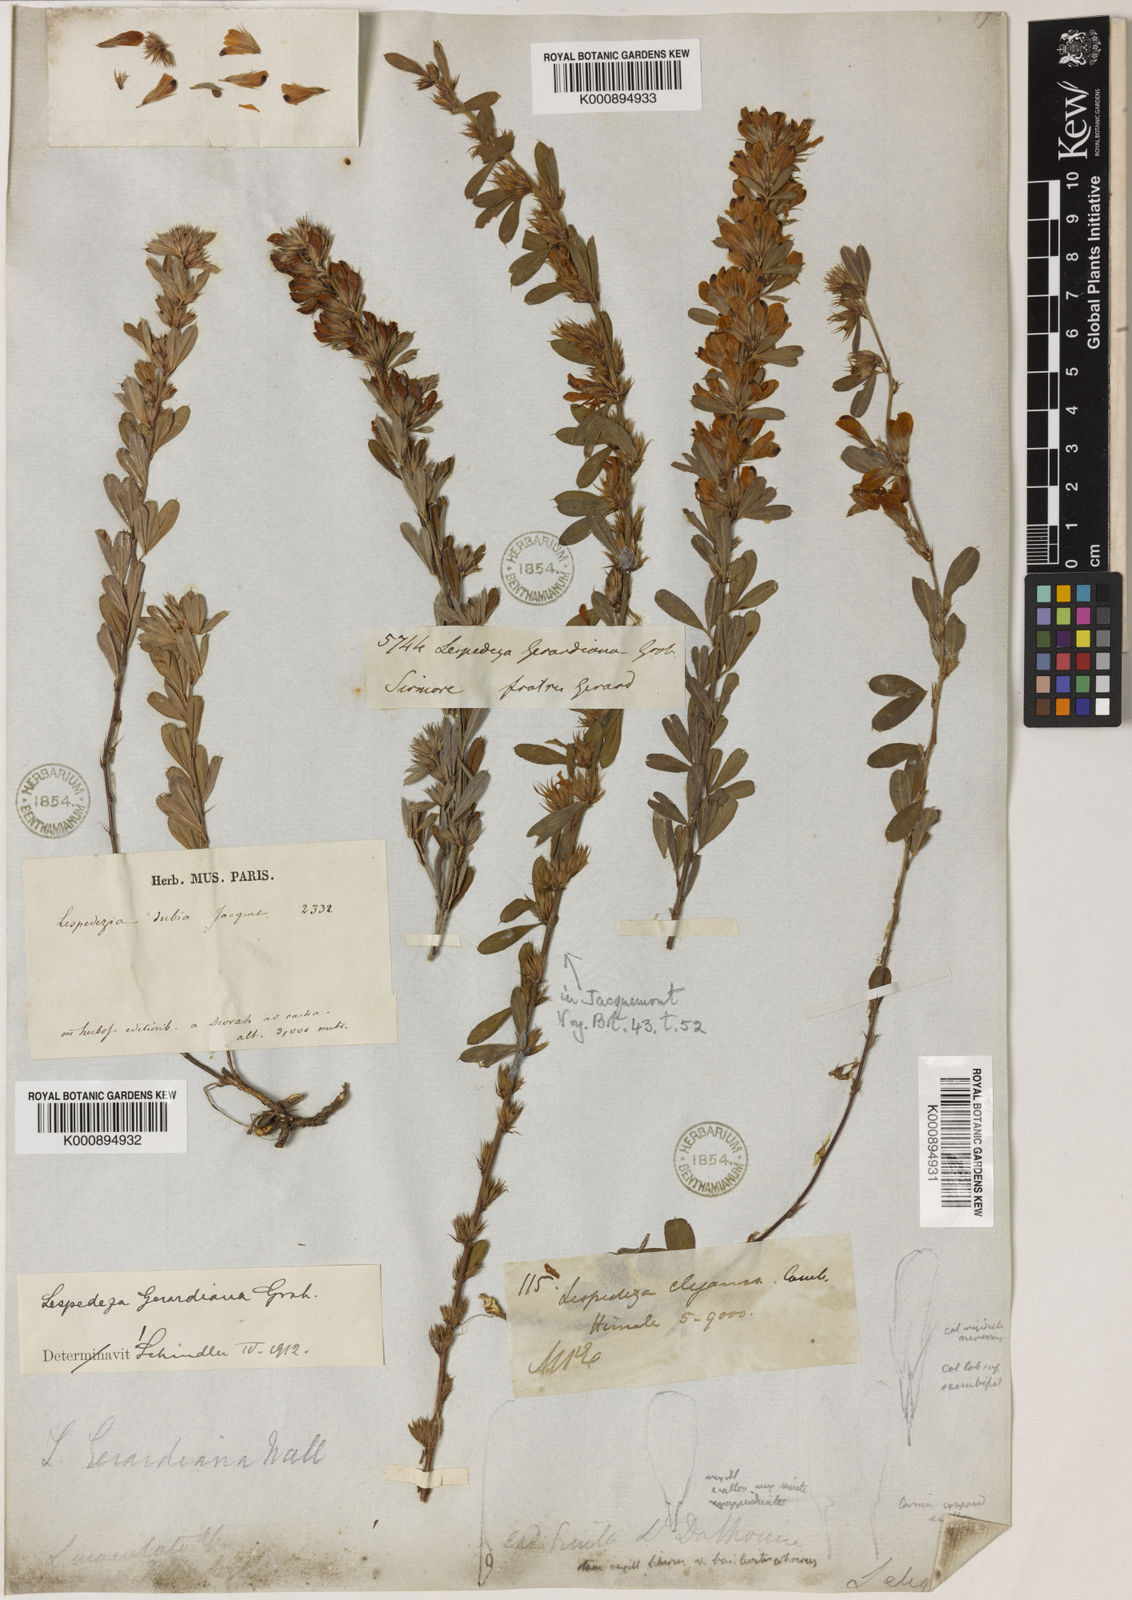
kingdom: Plantae
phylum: Tracheophyta
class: Magnoliopsida
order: Fabales
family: Fabaceae
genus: Lespedeza
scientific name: Lespedeza
